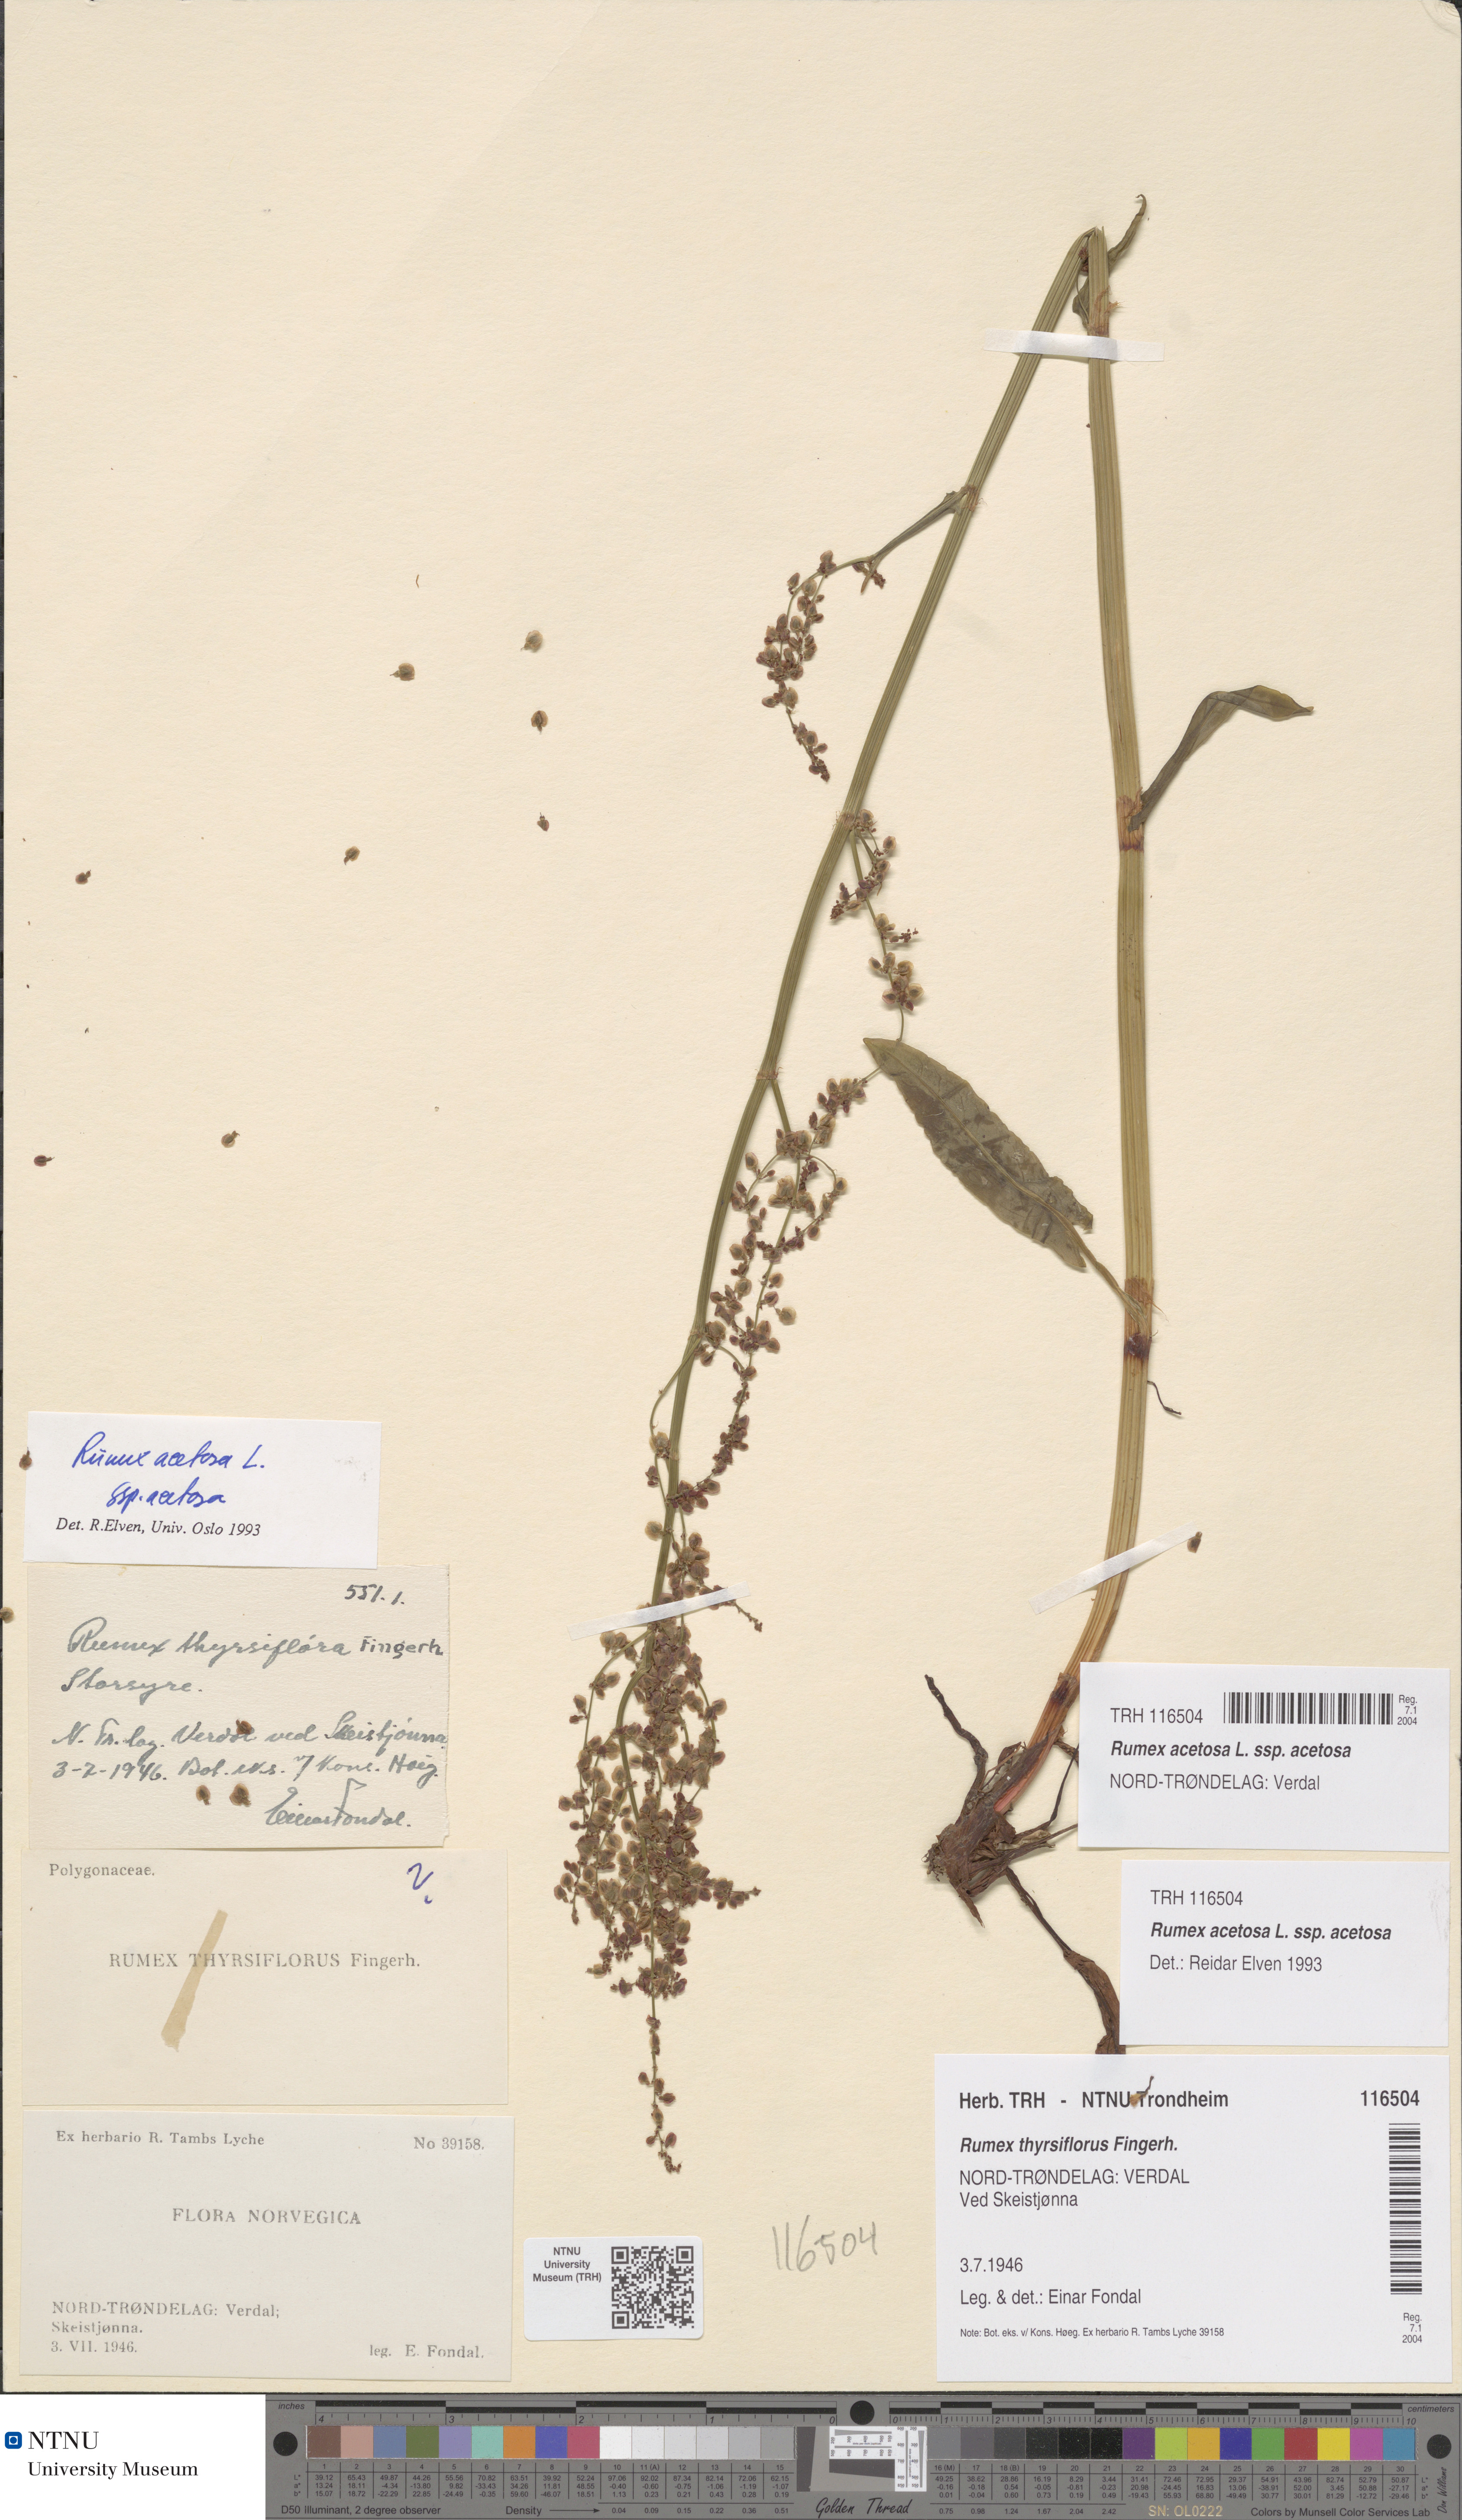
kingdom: Plantae
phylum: Tracheophyta
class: Magnoliopsida
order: Caryophyllales
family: Polygonaceae
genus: Rumex
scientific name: Rumex acetosa
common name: Garden sorrel
